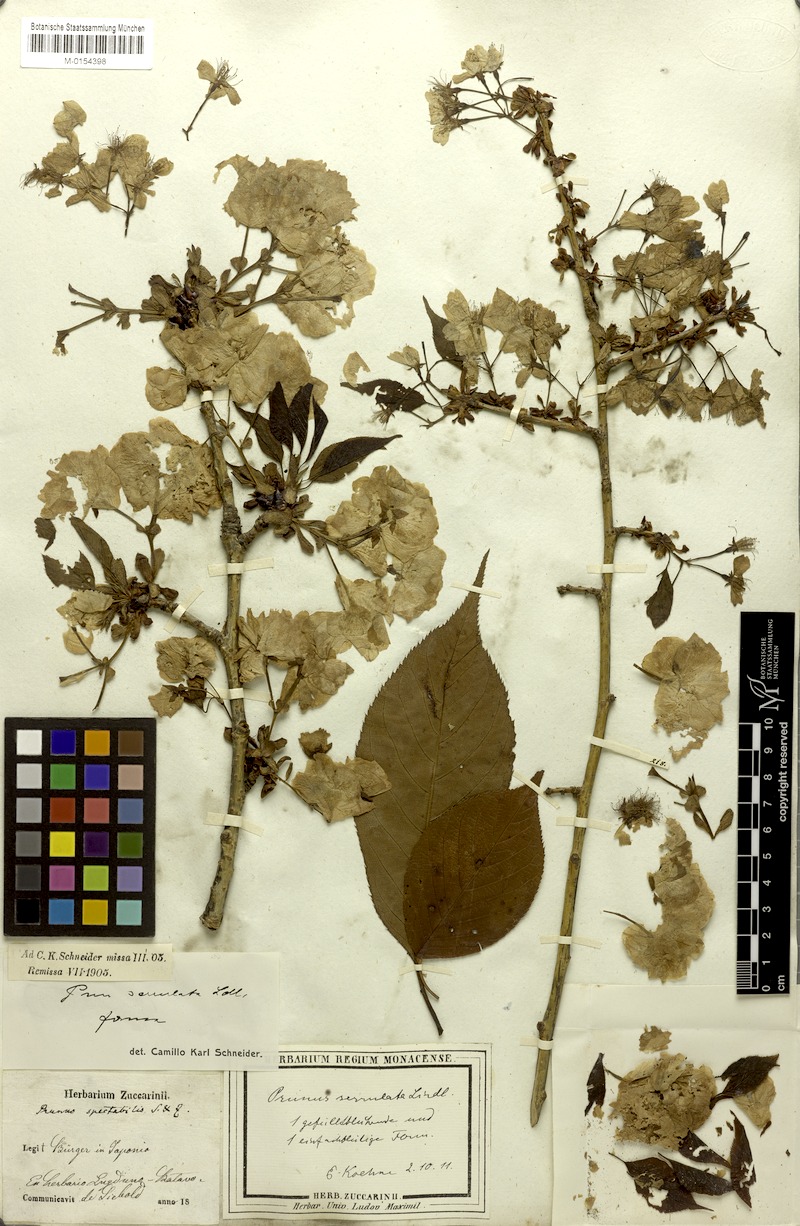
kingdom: Plantae
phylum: Tracheophyta
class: Magnoliopsida
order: Rosales
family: Rosaceae
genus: Prunus
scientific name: Prunus serrulata
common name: Japanese cherry
